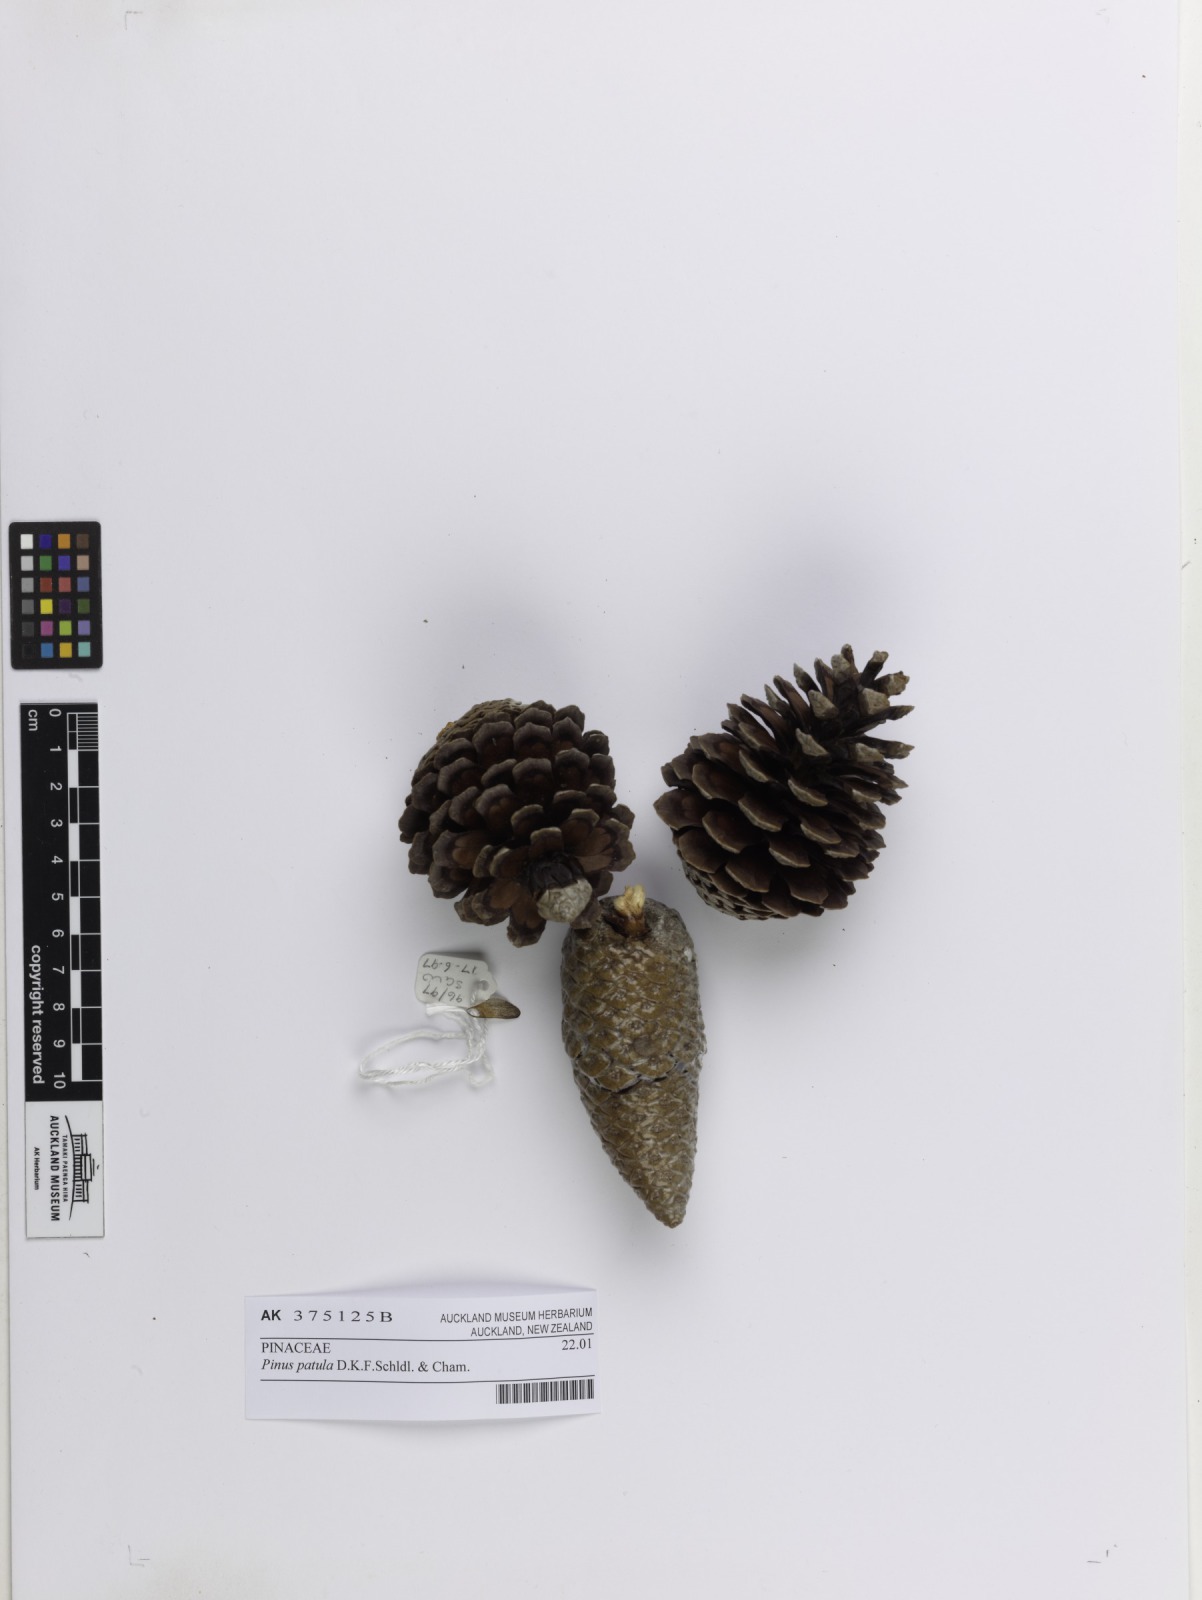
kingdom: Plantae
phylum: Tracheophyta
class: Pinopsida
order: Pinales
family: Pinaceae
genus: Pinus
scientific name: Pinus patula
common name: Mexican weeping pine
